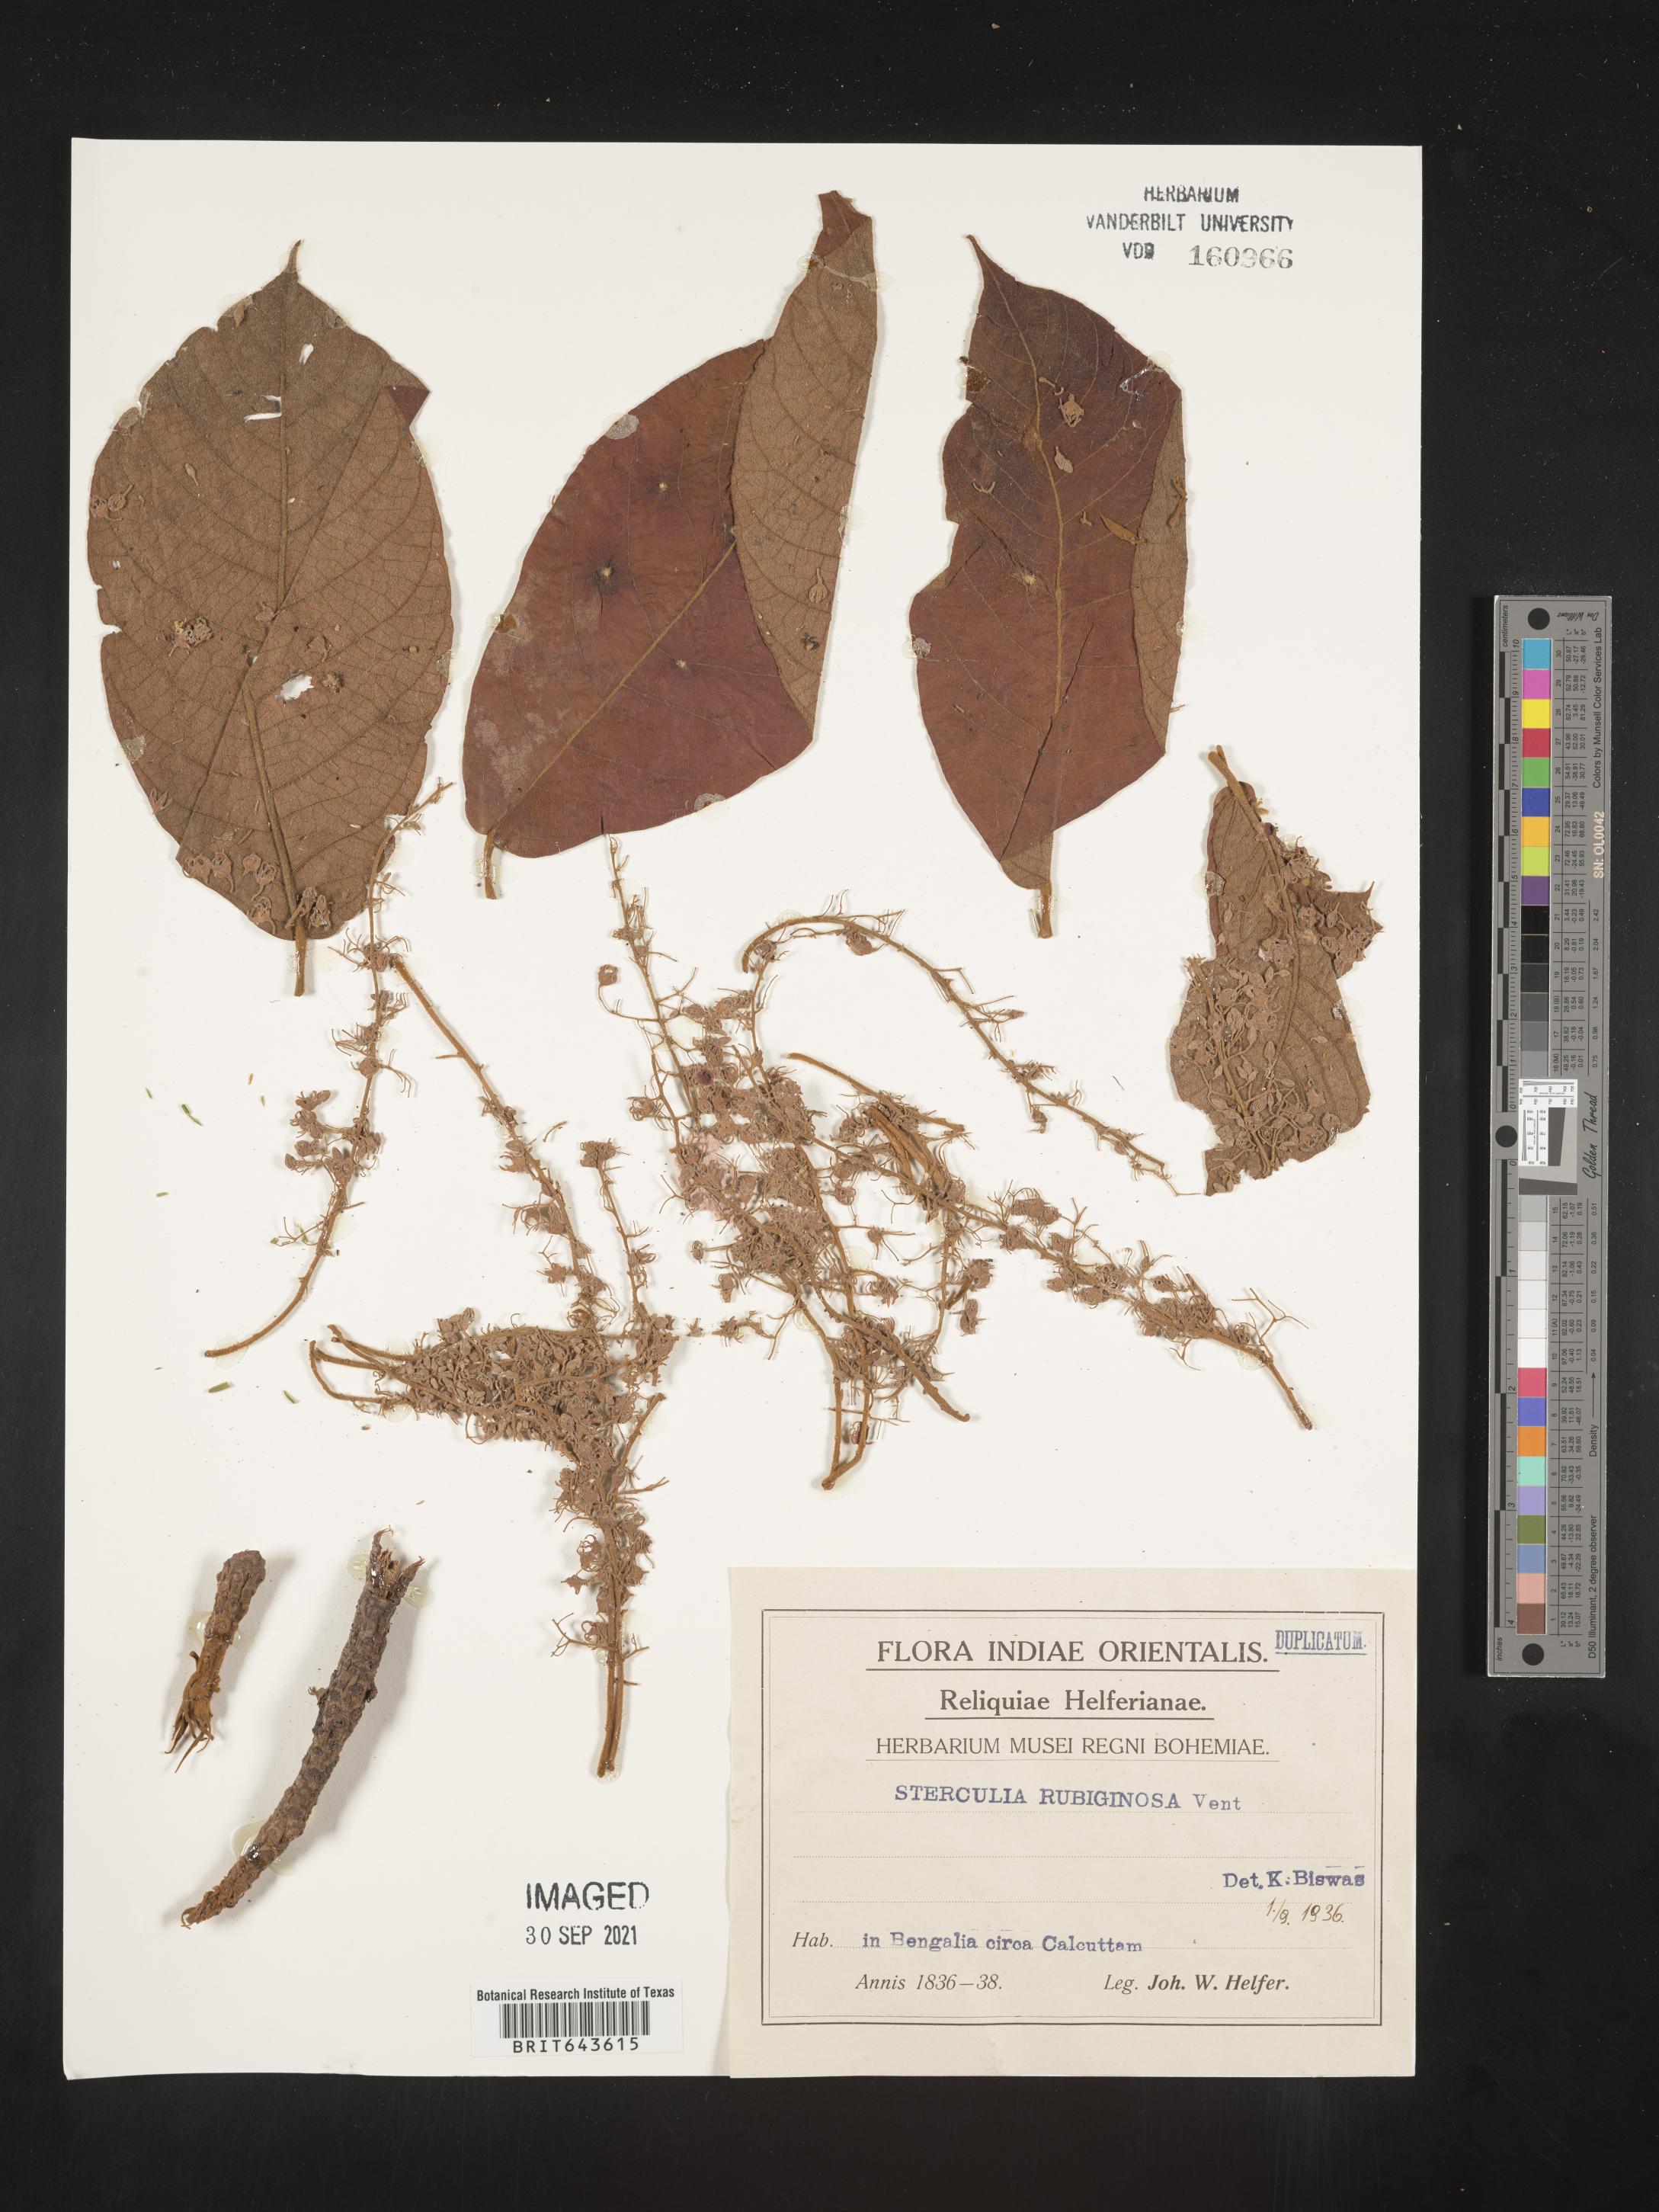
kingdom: Plantae
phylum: Tracheophyta
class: Magnoliopsida
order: Malvales
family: Malvaceae
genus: Sterculia
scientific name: Sterculia
